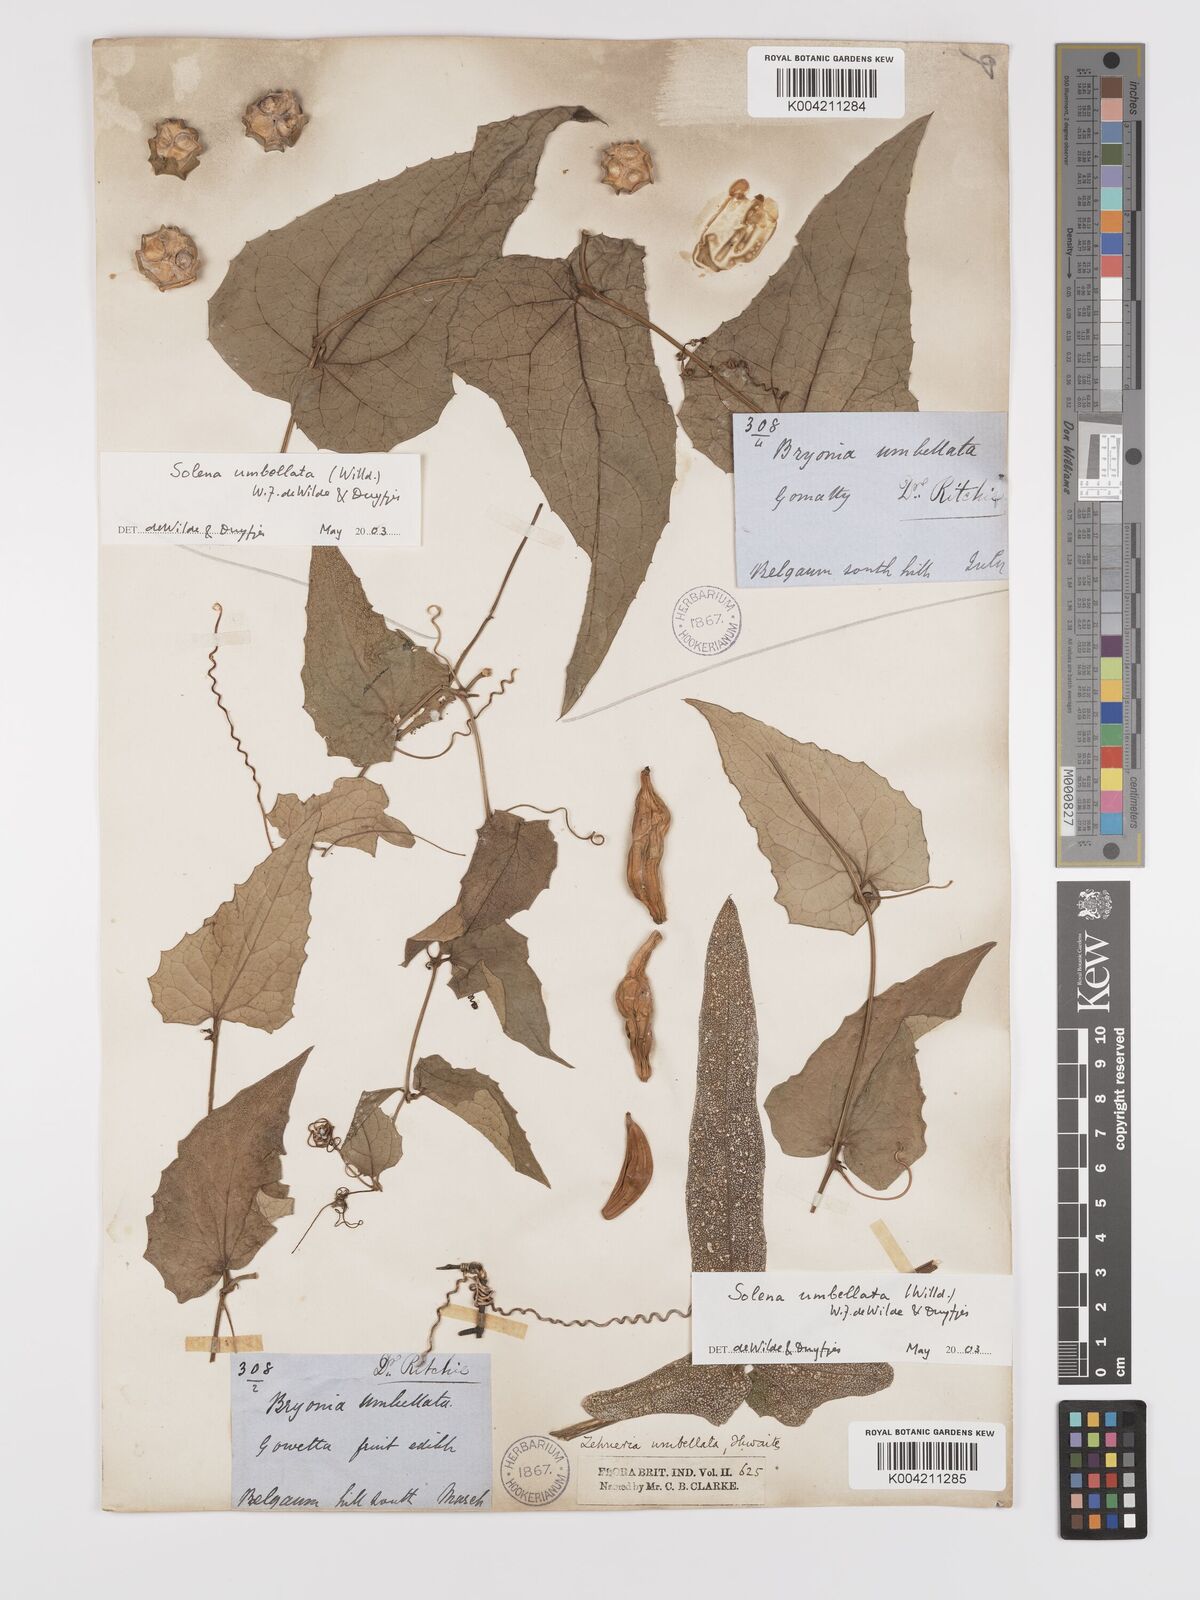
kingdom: Plantae
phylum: Tracheophyta
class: Magnoliopsida
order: Cucurbitales
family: Cucurbitaceae
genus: Solena
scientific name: Solena amplexicaulis
